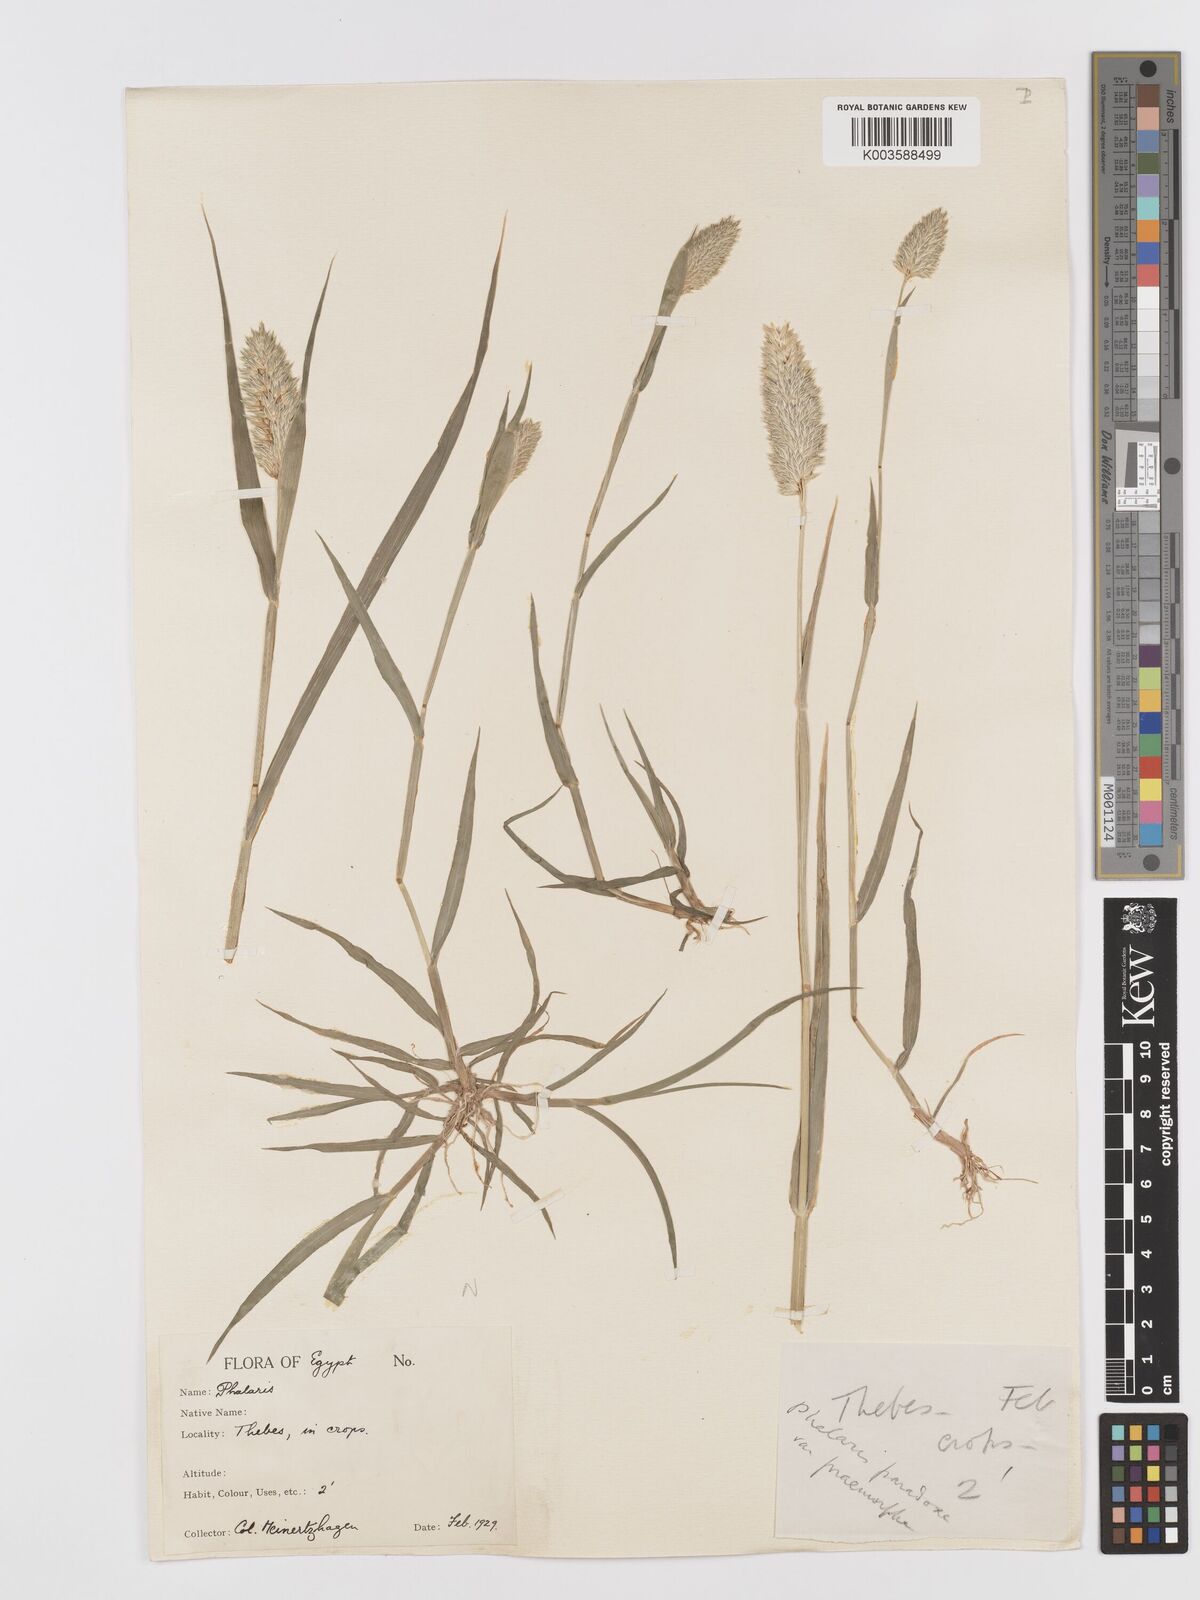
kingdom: Plantae
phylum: Tracheophyta
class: Liliopsida
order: Poales
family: Poaceae
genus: Phalaris
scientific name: Phalaris minor
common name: Littleseed canarygrass
